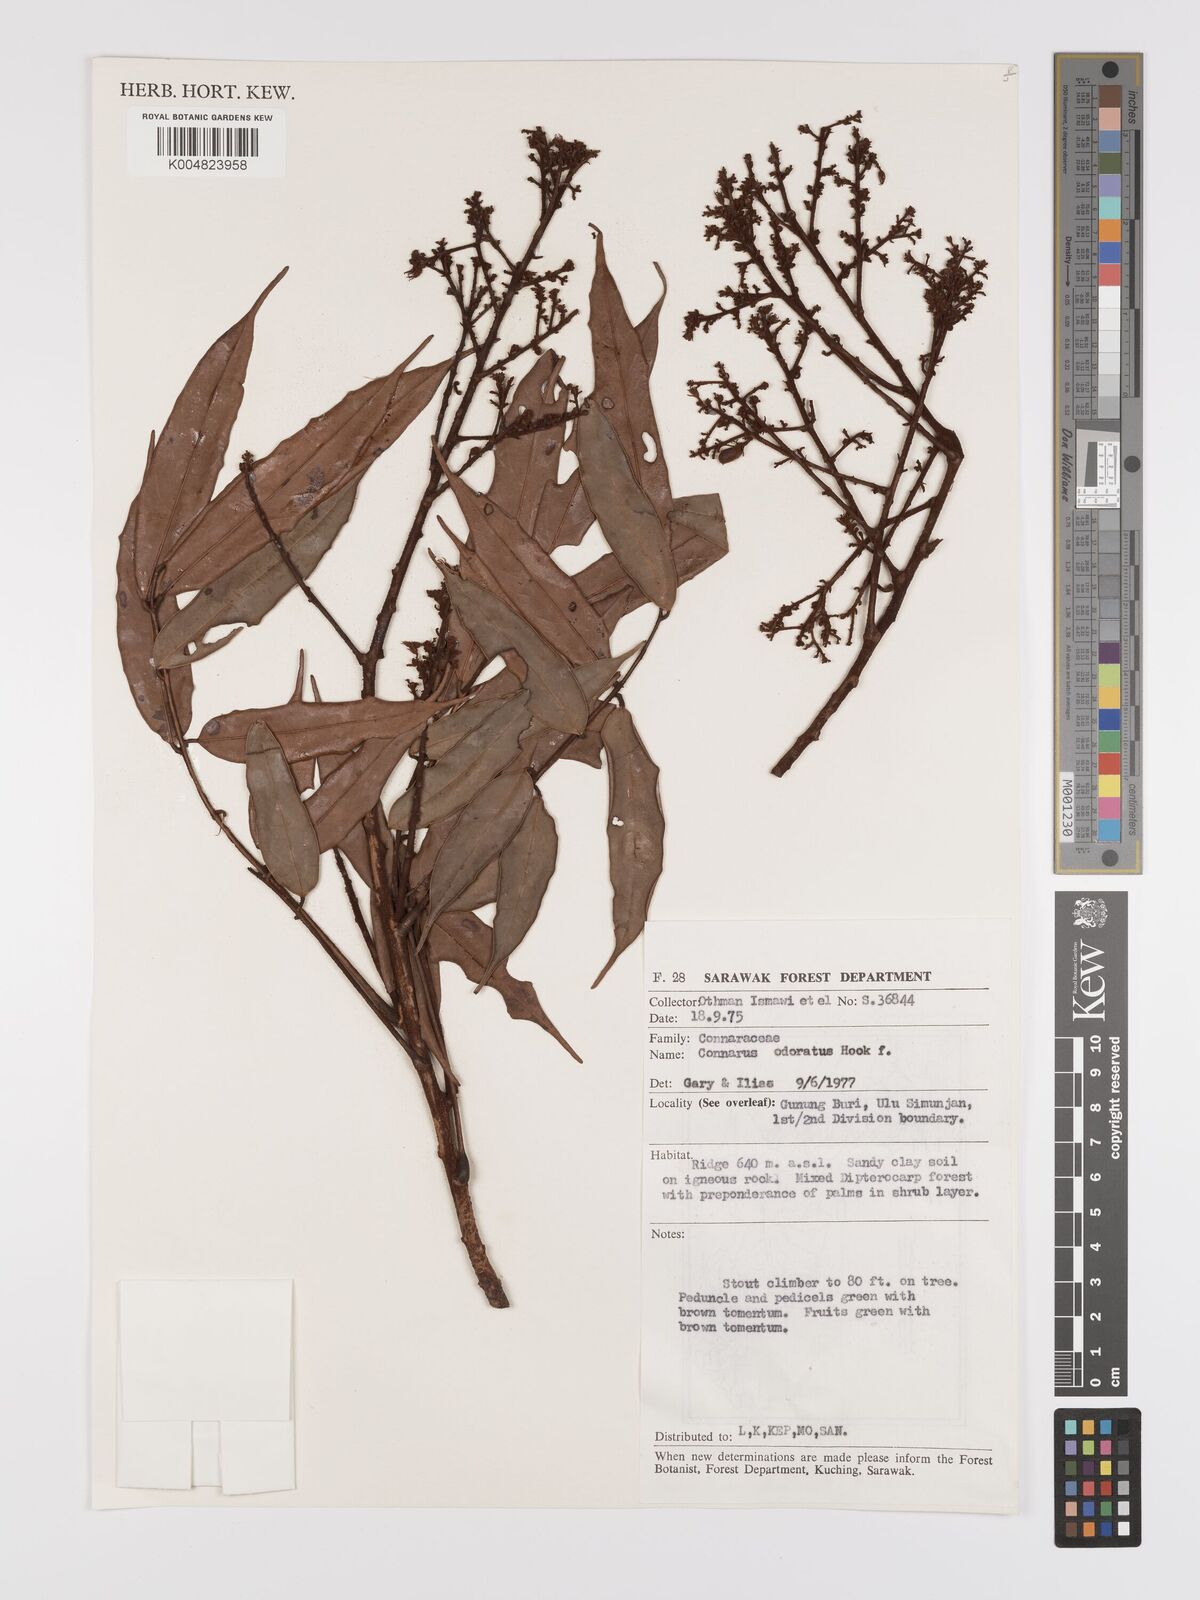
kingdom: Plantae
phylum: Tracheophyta
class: Magnoliopsida
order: Oxalidales
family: Connaraceae
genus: Connarus
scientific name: Connarus odoratus
